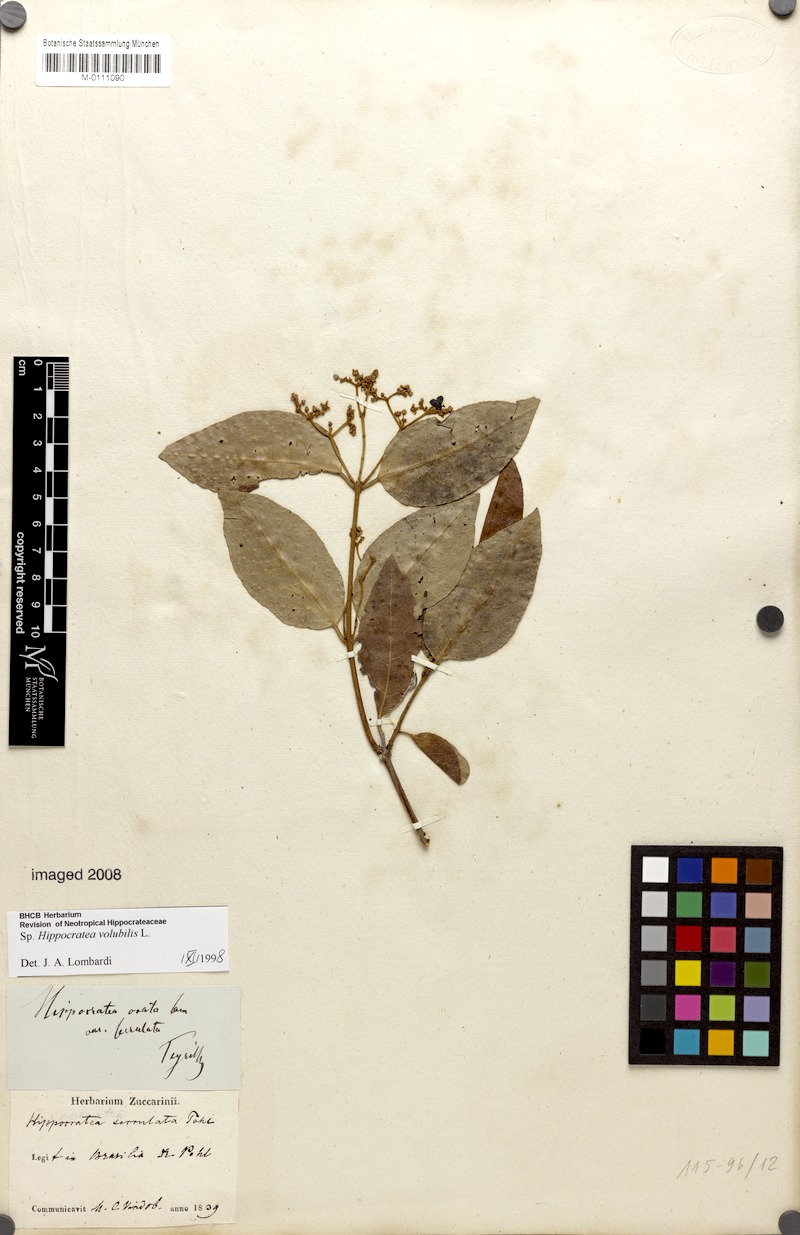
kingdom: Plantae
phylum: Tracheophyta
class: Magnoliopsida
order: Celastrales
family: Celastraceae
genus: Hippocratea
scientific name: Hippocratea volubilis
